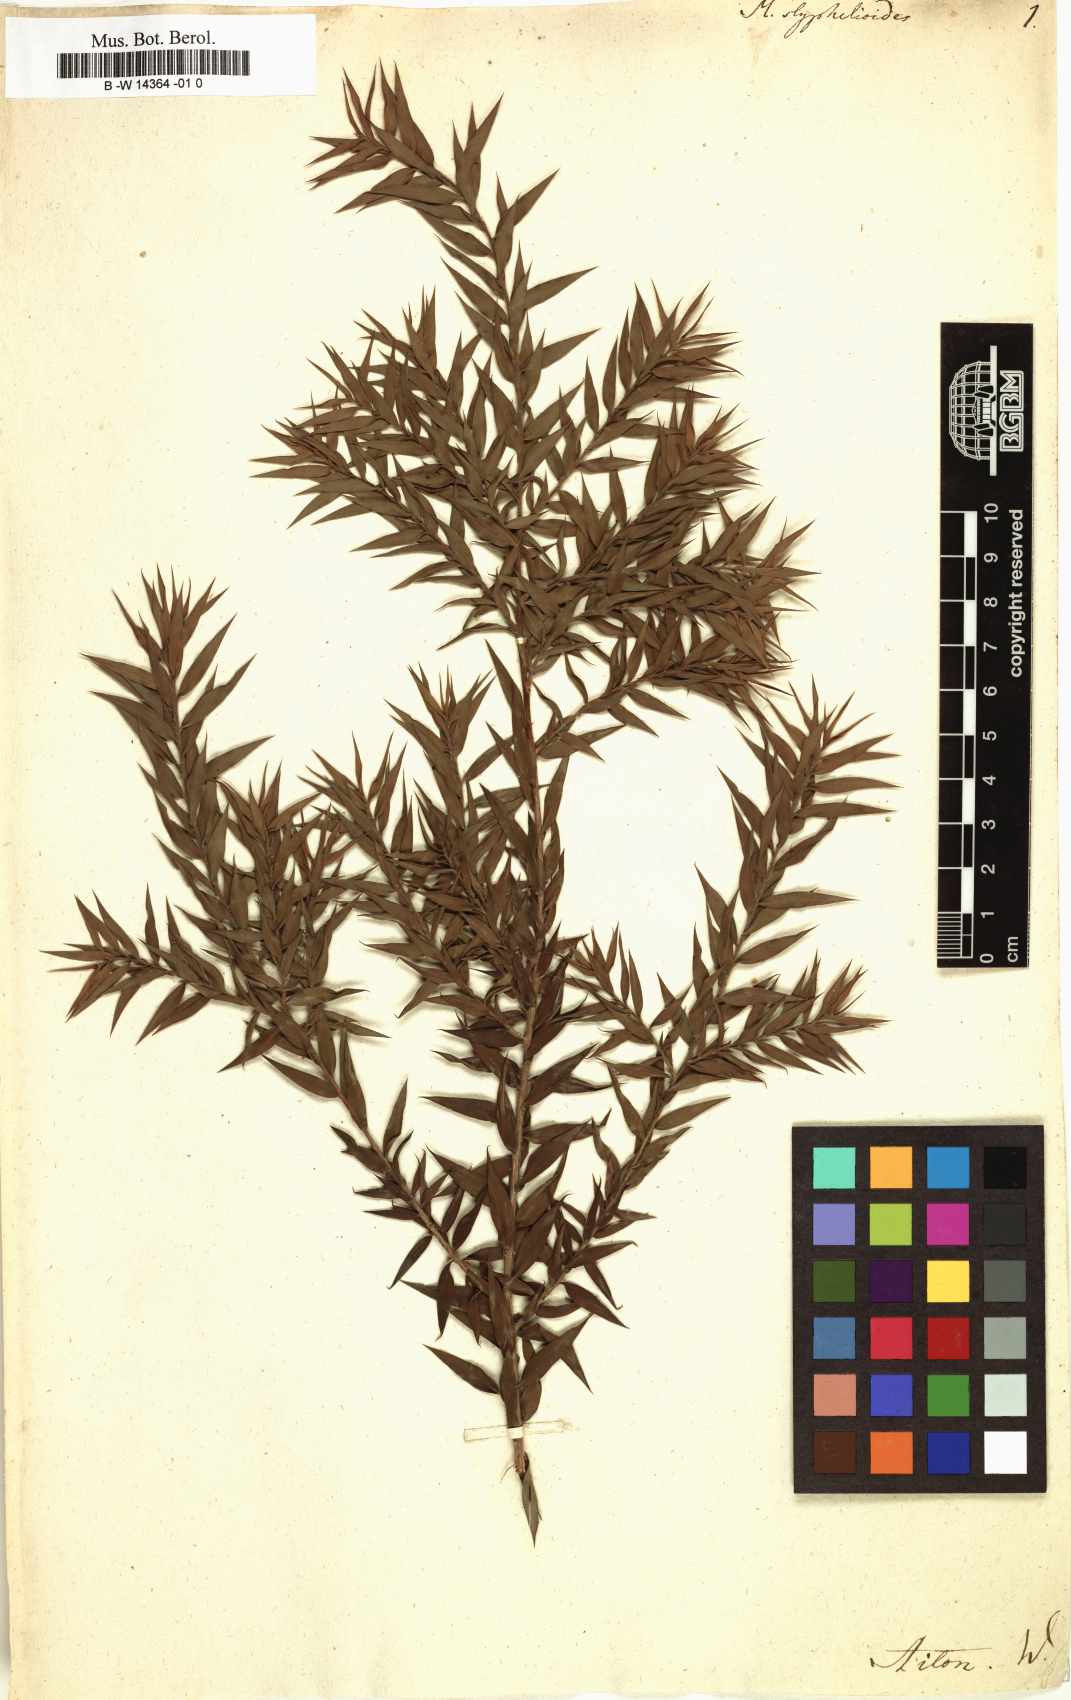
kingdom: Plantae
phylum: Tracheophyta
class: Magnoliopsida
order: Myrtales
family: Myrtaceae
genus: Melaleuca
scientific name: Melaleuca styphelioides
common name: Prickly paperbark
